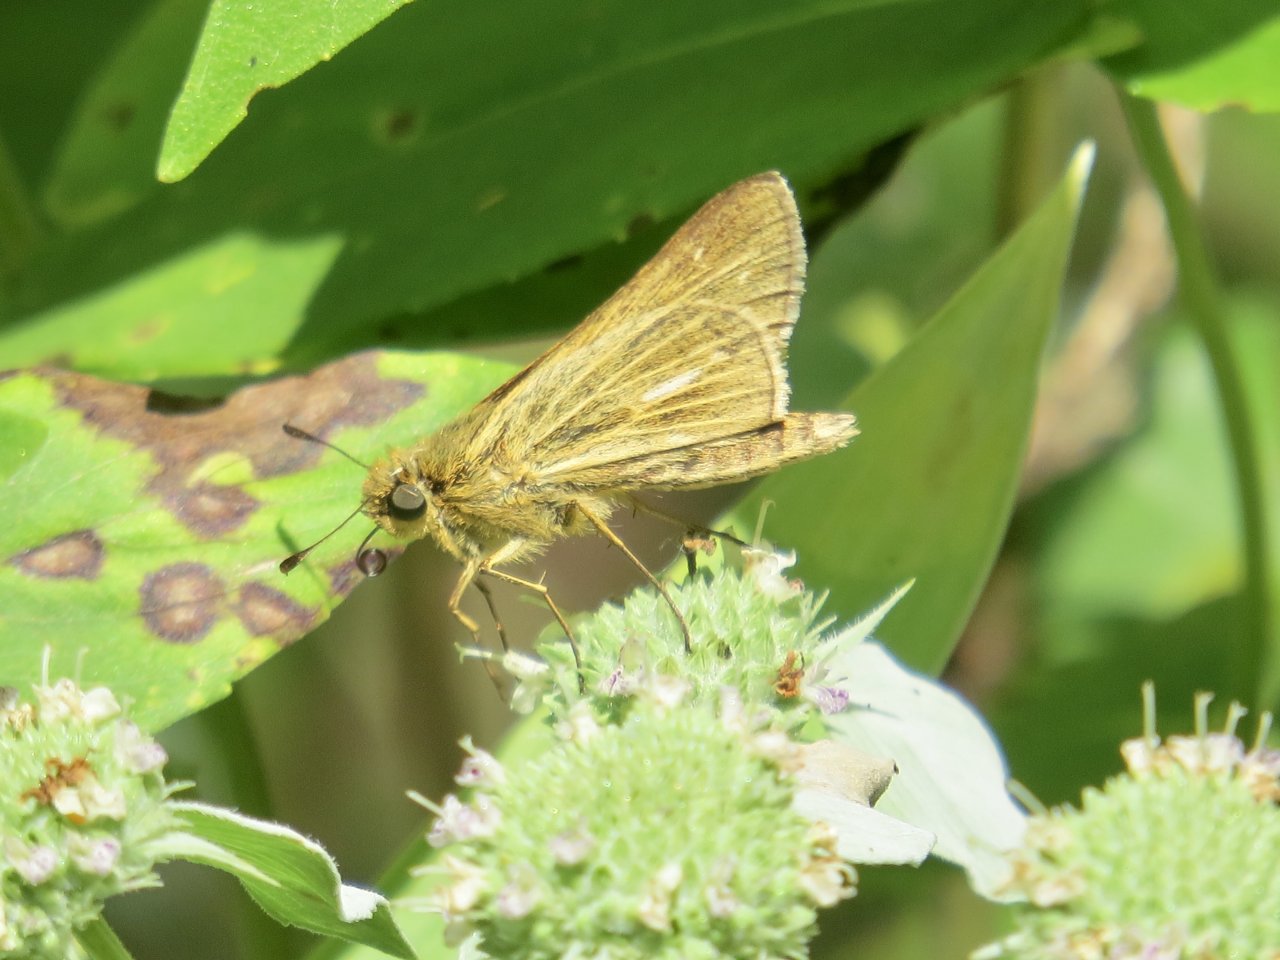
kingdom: Animalia
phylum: Arthropoda
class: Insecta
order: Lepidoptera
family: Hesperiidae
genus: Panoquina
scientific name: Panoquina panoquin
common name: Salt Marsh Skipper
